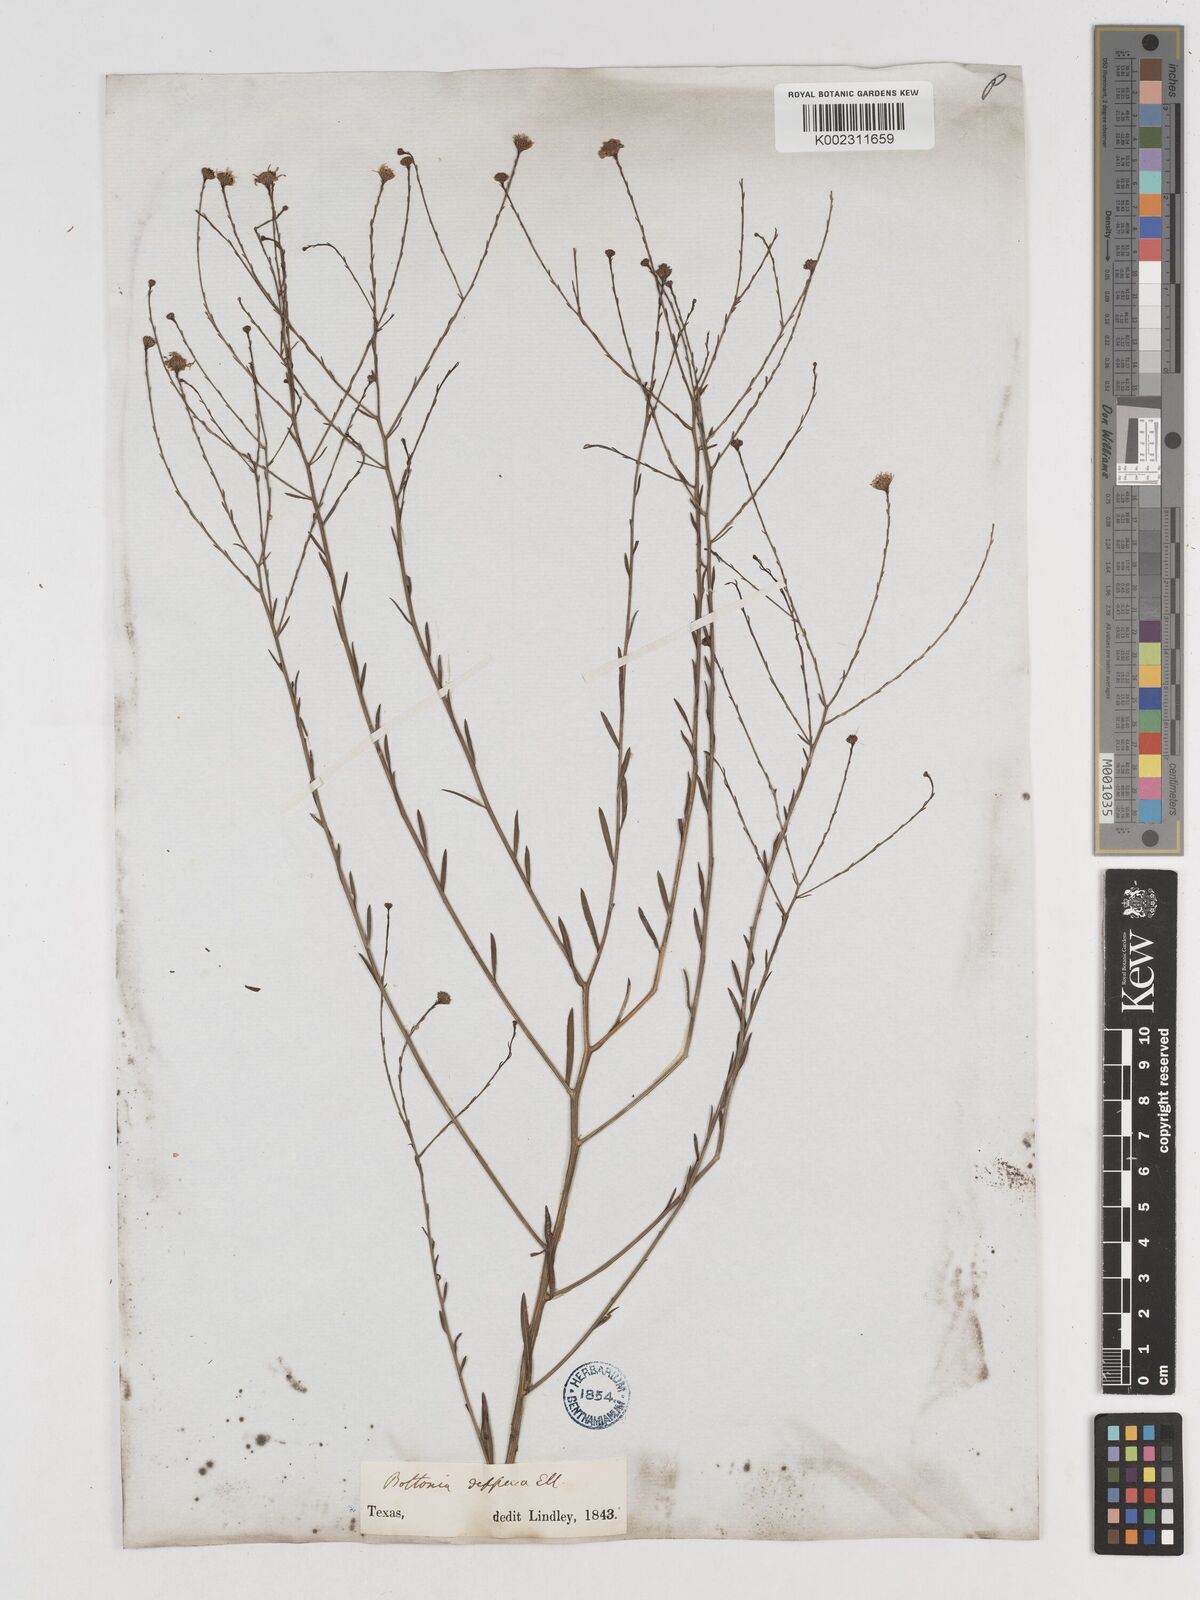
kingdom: Plantae
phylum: Tracheophyta
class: Magnoliopsida
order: Asterales
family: Asteraceae
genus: Boltonia
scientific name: Boltonia diffusa
